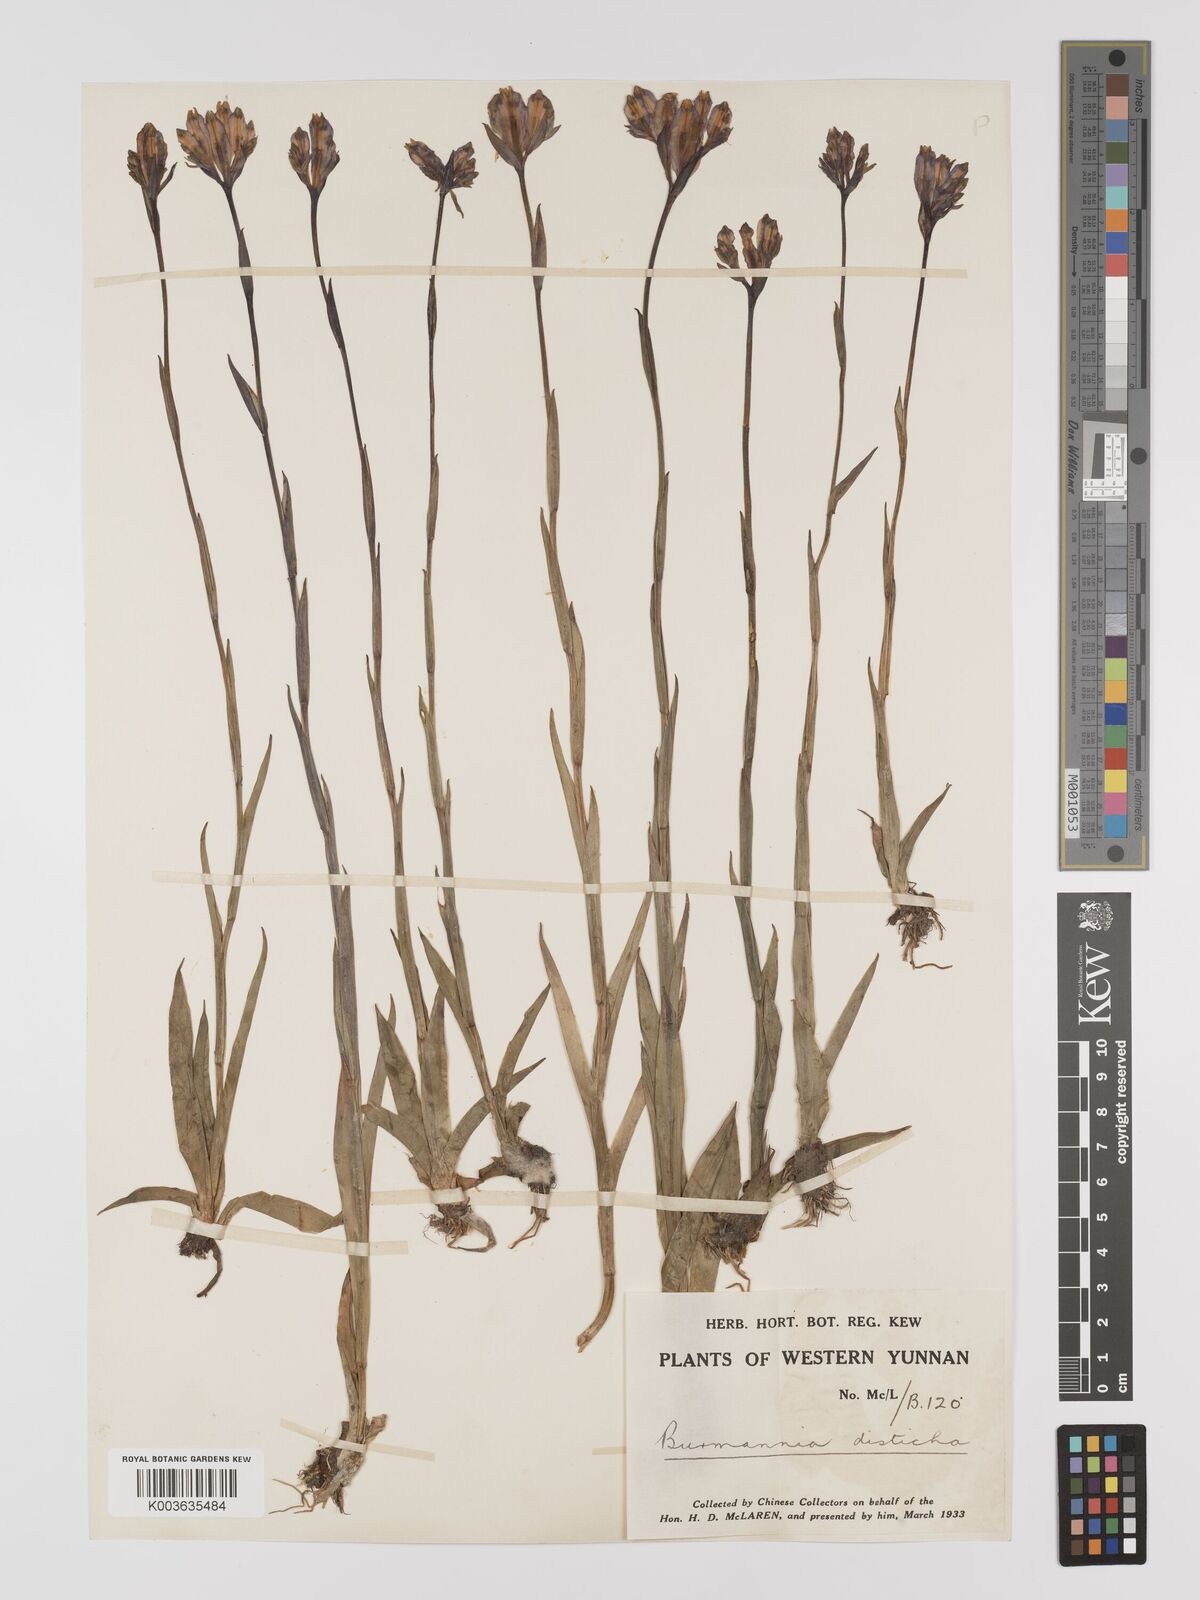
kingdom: Plantae
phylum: Tracheophyta
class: Liliopsida
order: Dioscoreales
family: Burmanniaceae
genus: Burmannia
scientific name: Burmannia disticha
